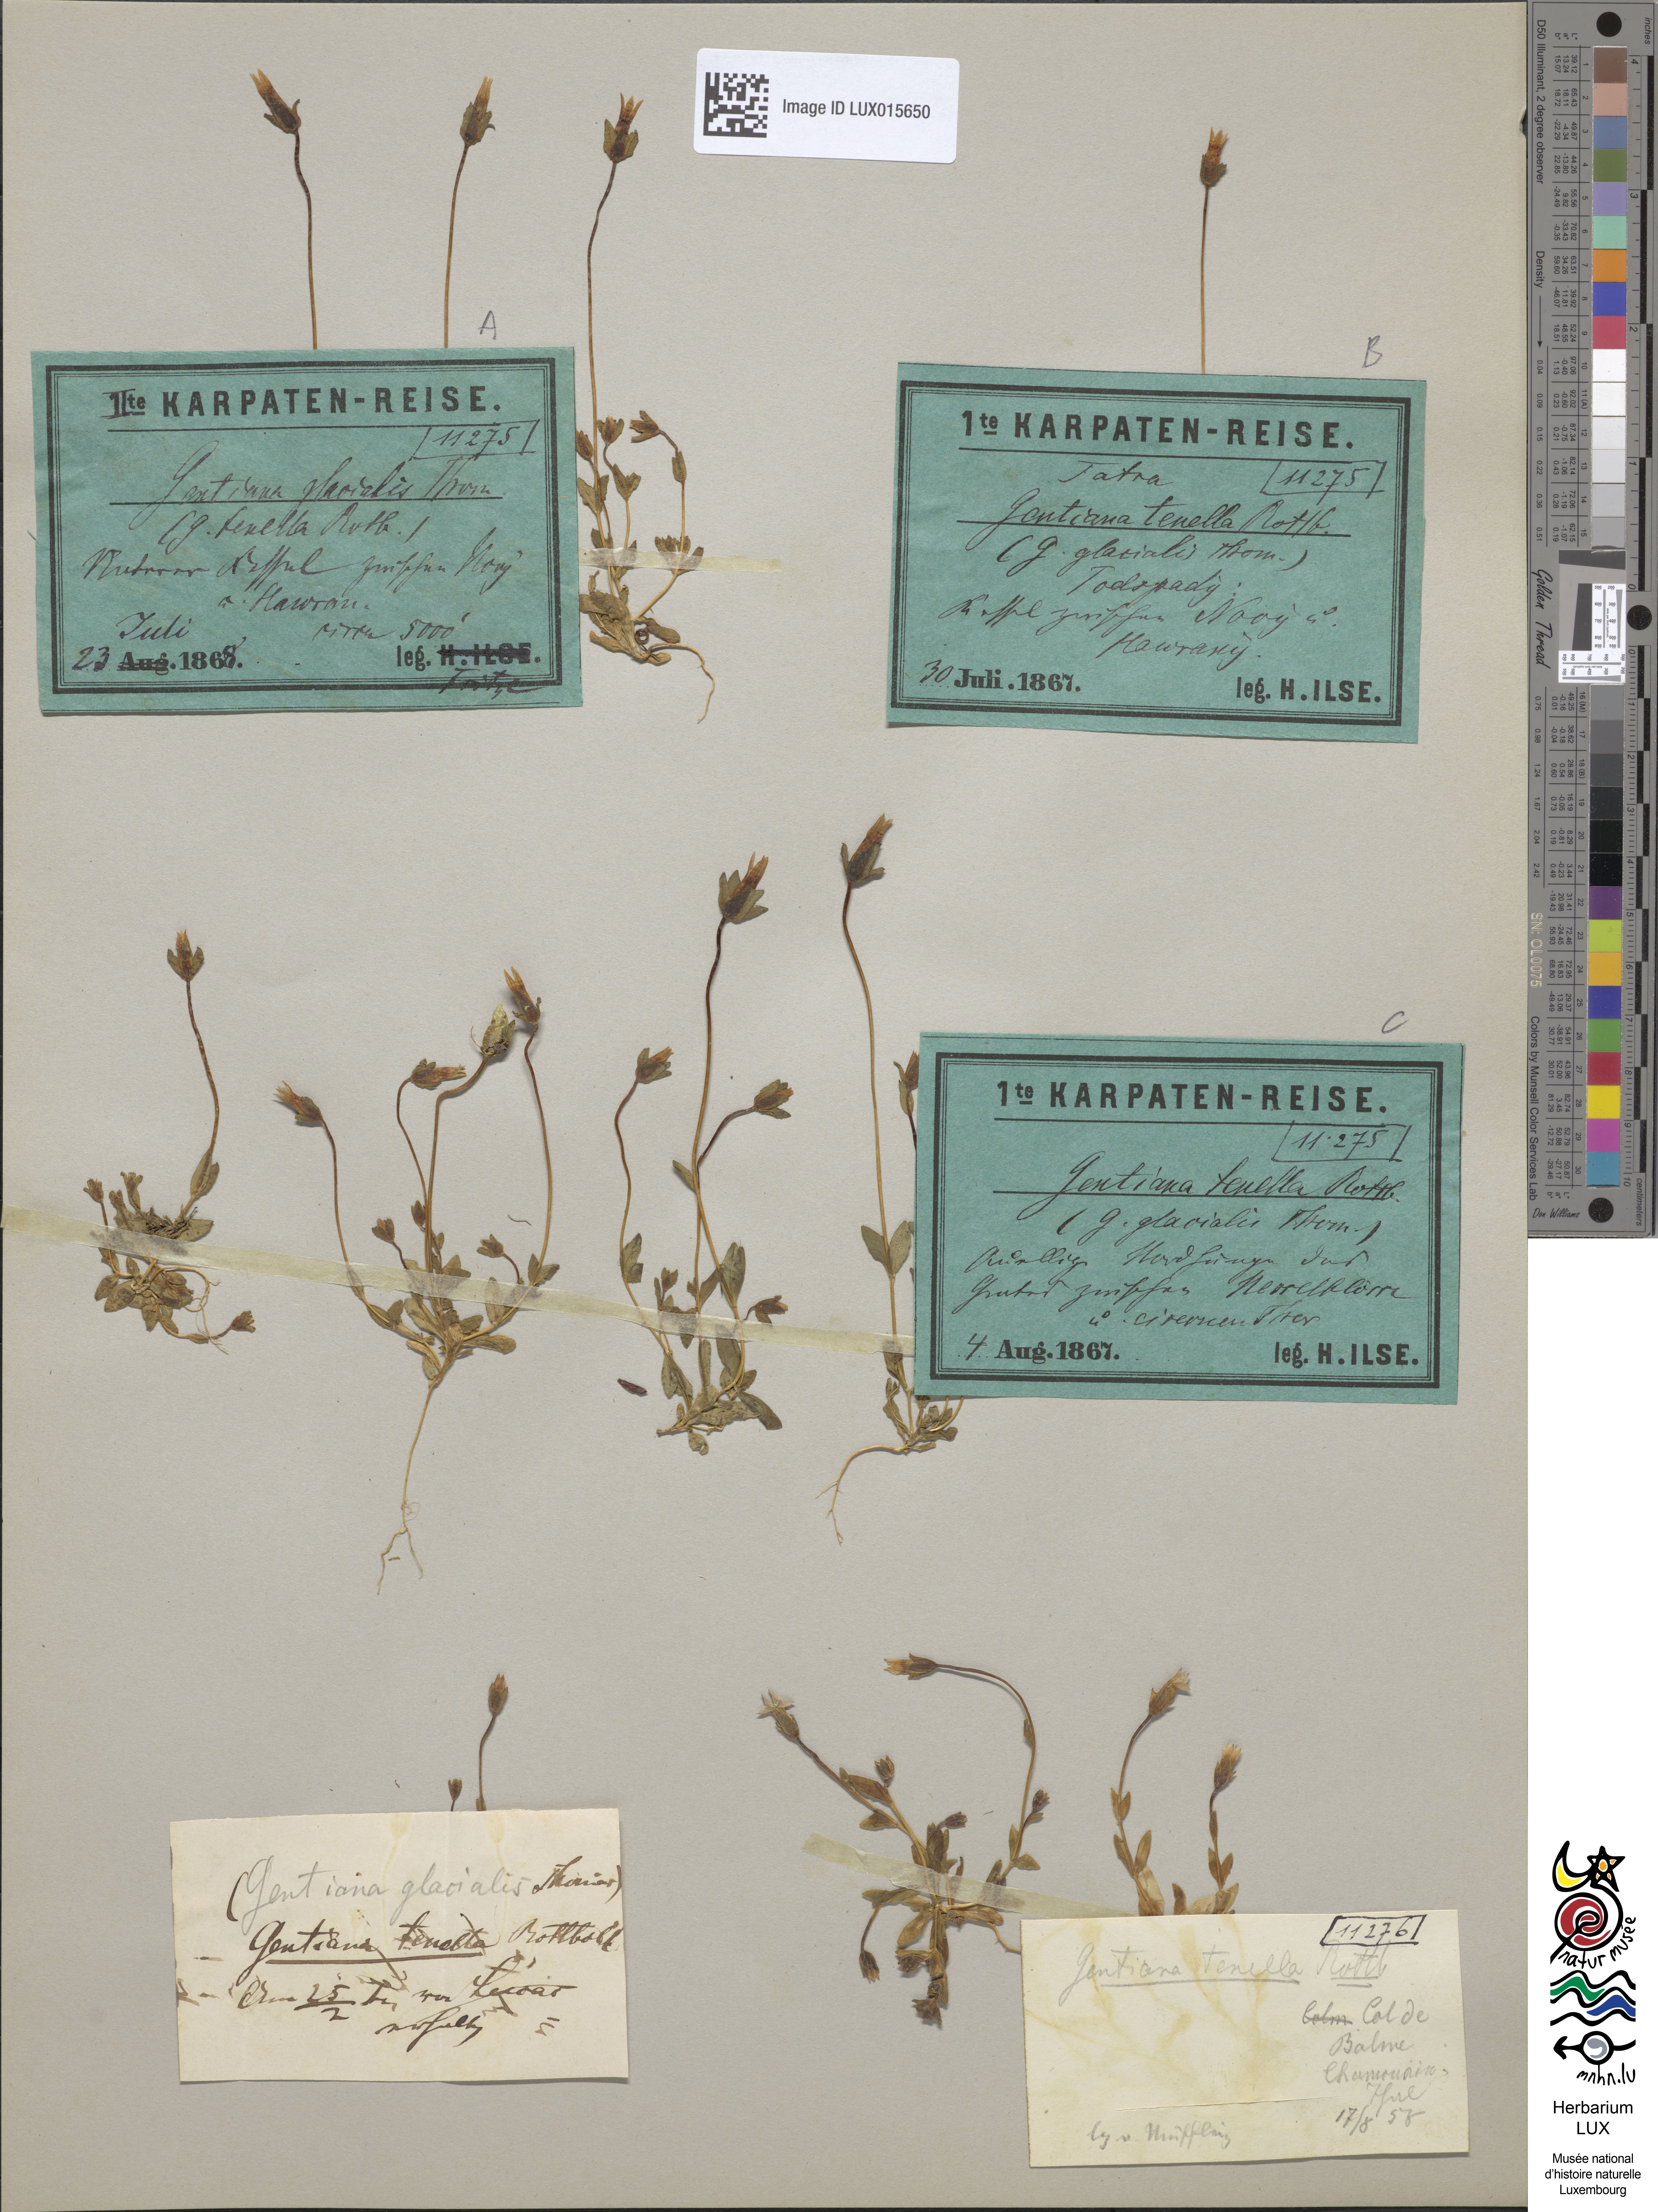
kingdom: Plantae
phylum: Tracheophyta
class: Magnoliopsida
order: Gentianales
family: Gentianaceae
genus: Comastoma
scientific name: Comastoma tenellum
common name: Dane's dwarf gentian
